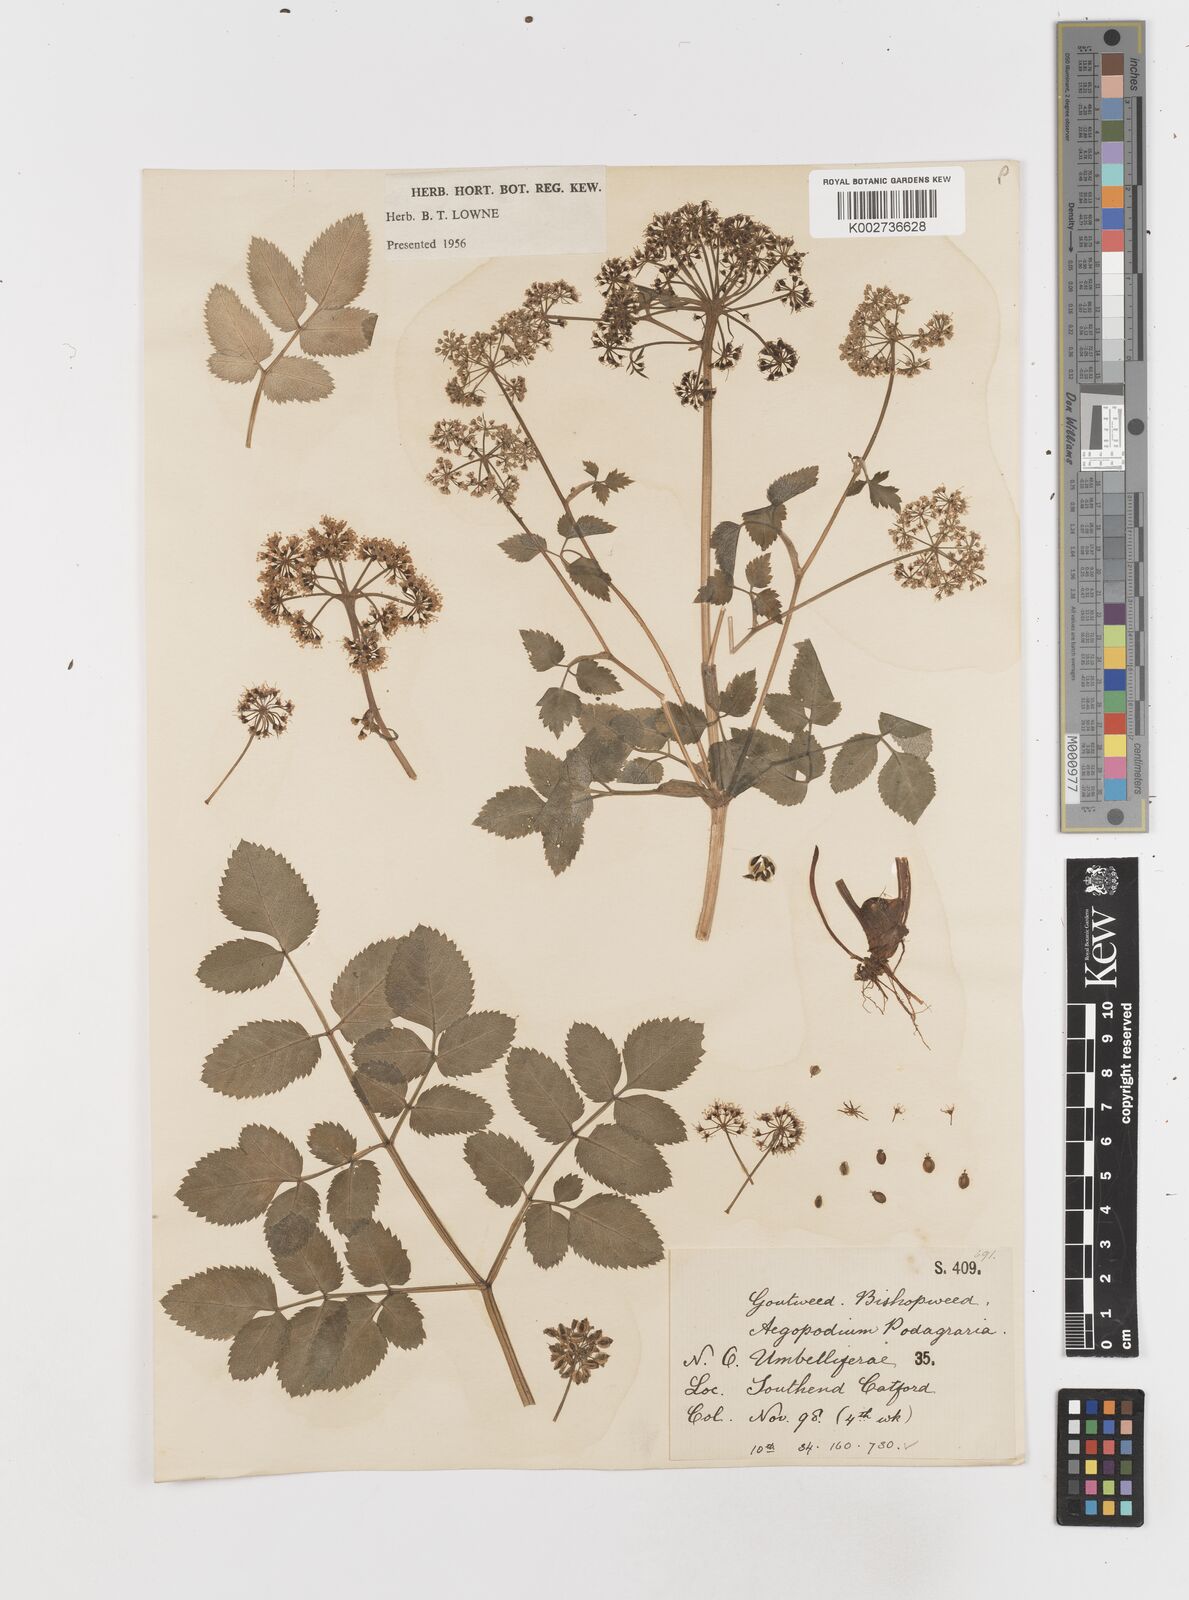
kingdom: Plantae
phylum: Tracheophyta
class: Magnoliopsida
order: Apiales
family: Apiaceae
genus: Aegopodium
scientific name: Aegopodium podagraria
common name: Ground-elder
